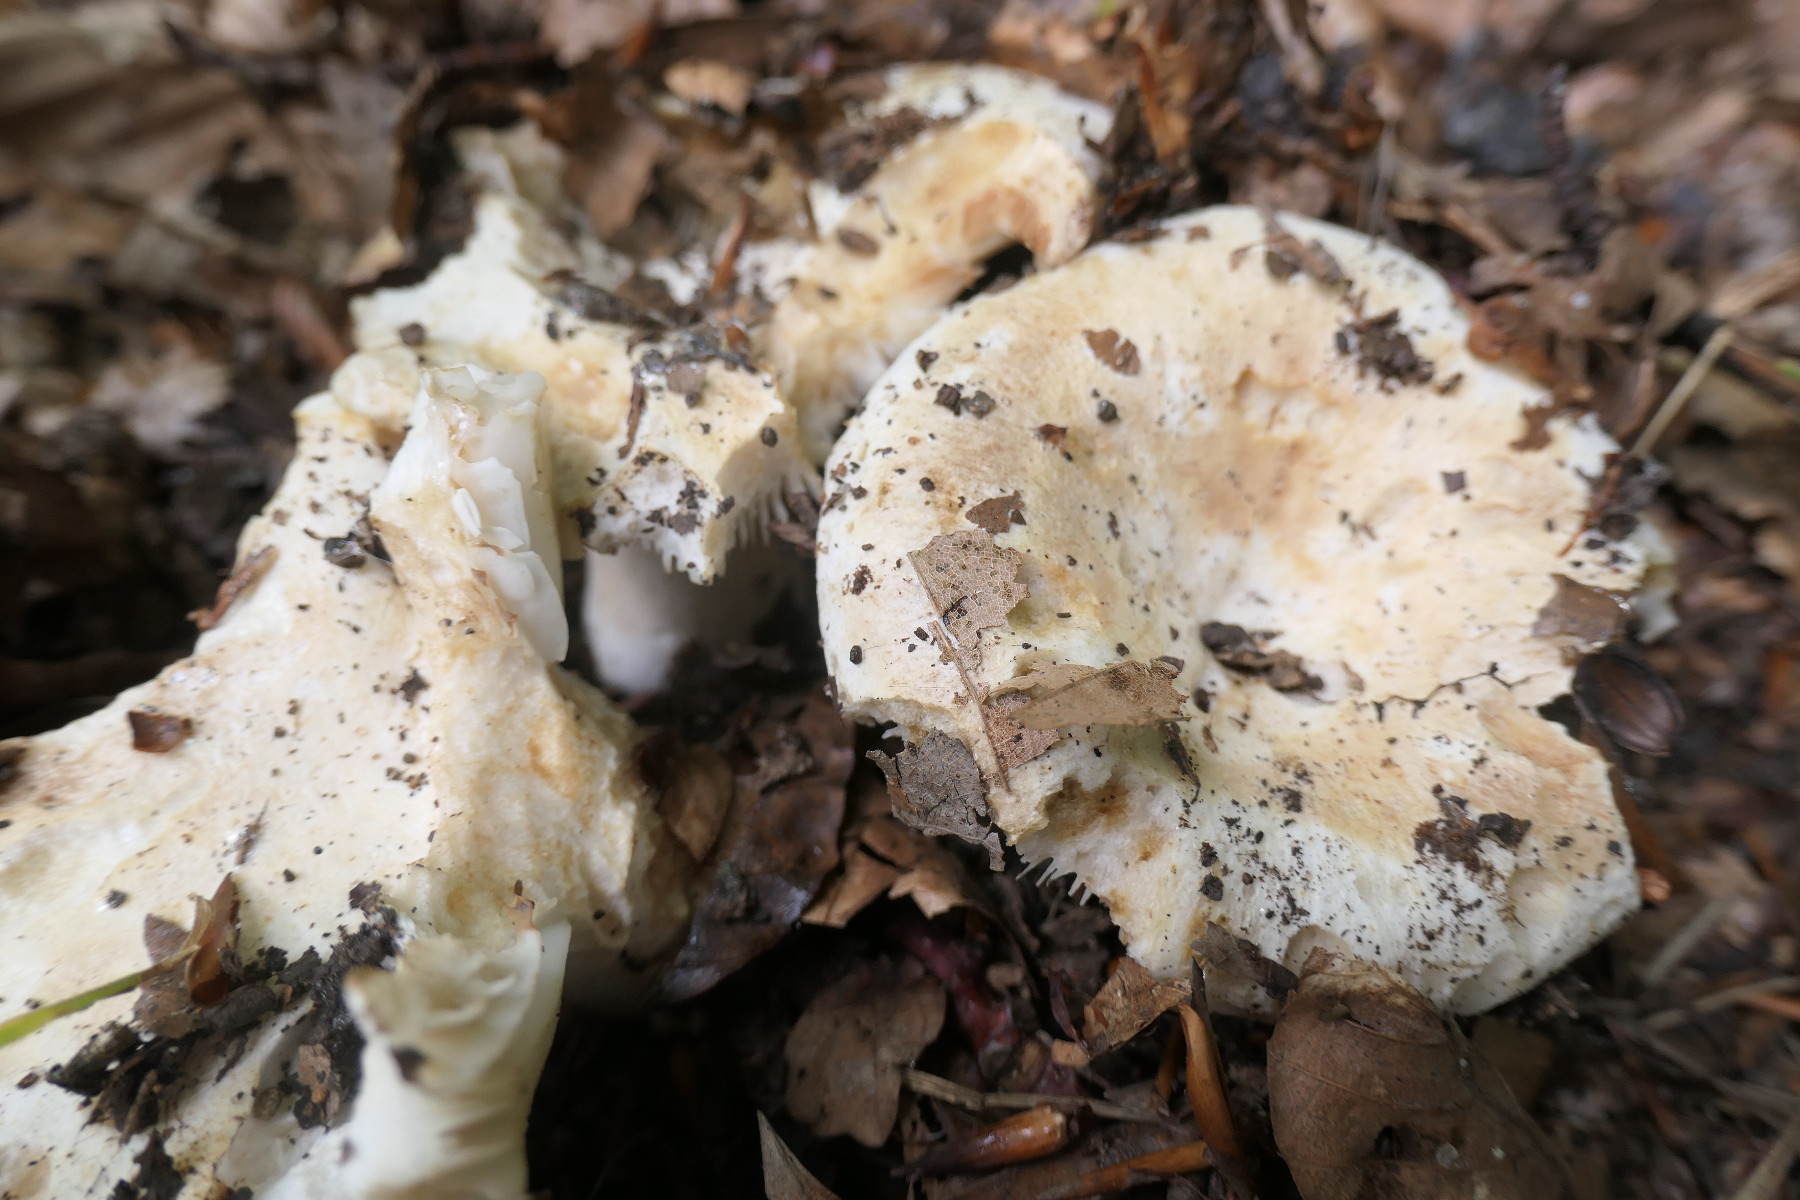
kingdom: Fungi
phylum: Basidiomycota
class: Agaricomycetes
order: Russulales
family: Russulaceae
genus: Russula
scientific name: Russula chloroides
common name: grønhalset tragt-skørhat
